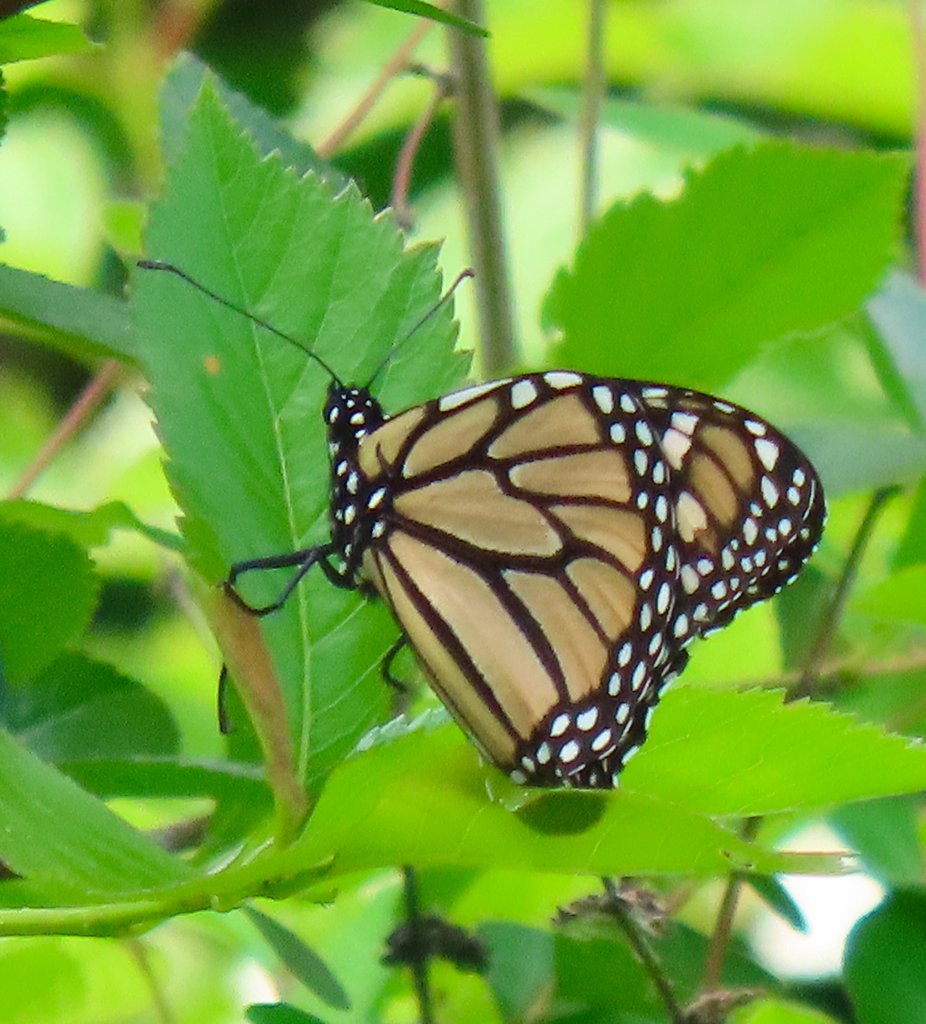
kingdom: Animalia
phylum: Arthropoda
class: Insecta
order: Lepidoptera
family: Nymphalidae
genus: Danaus
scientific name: Danaus plexippus
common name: Monarch
